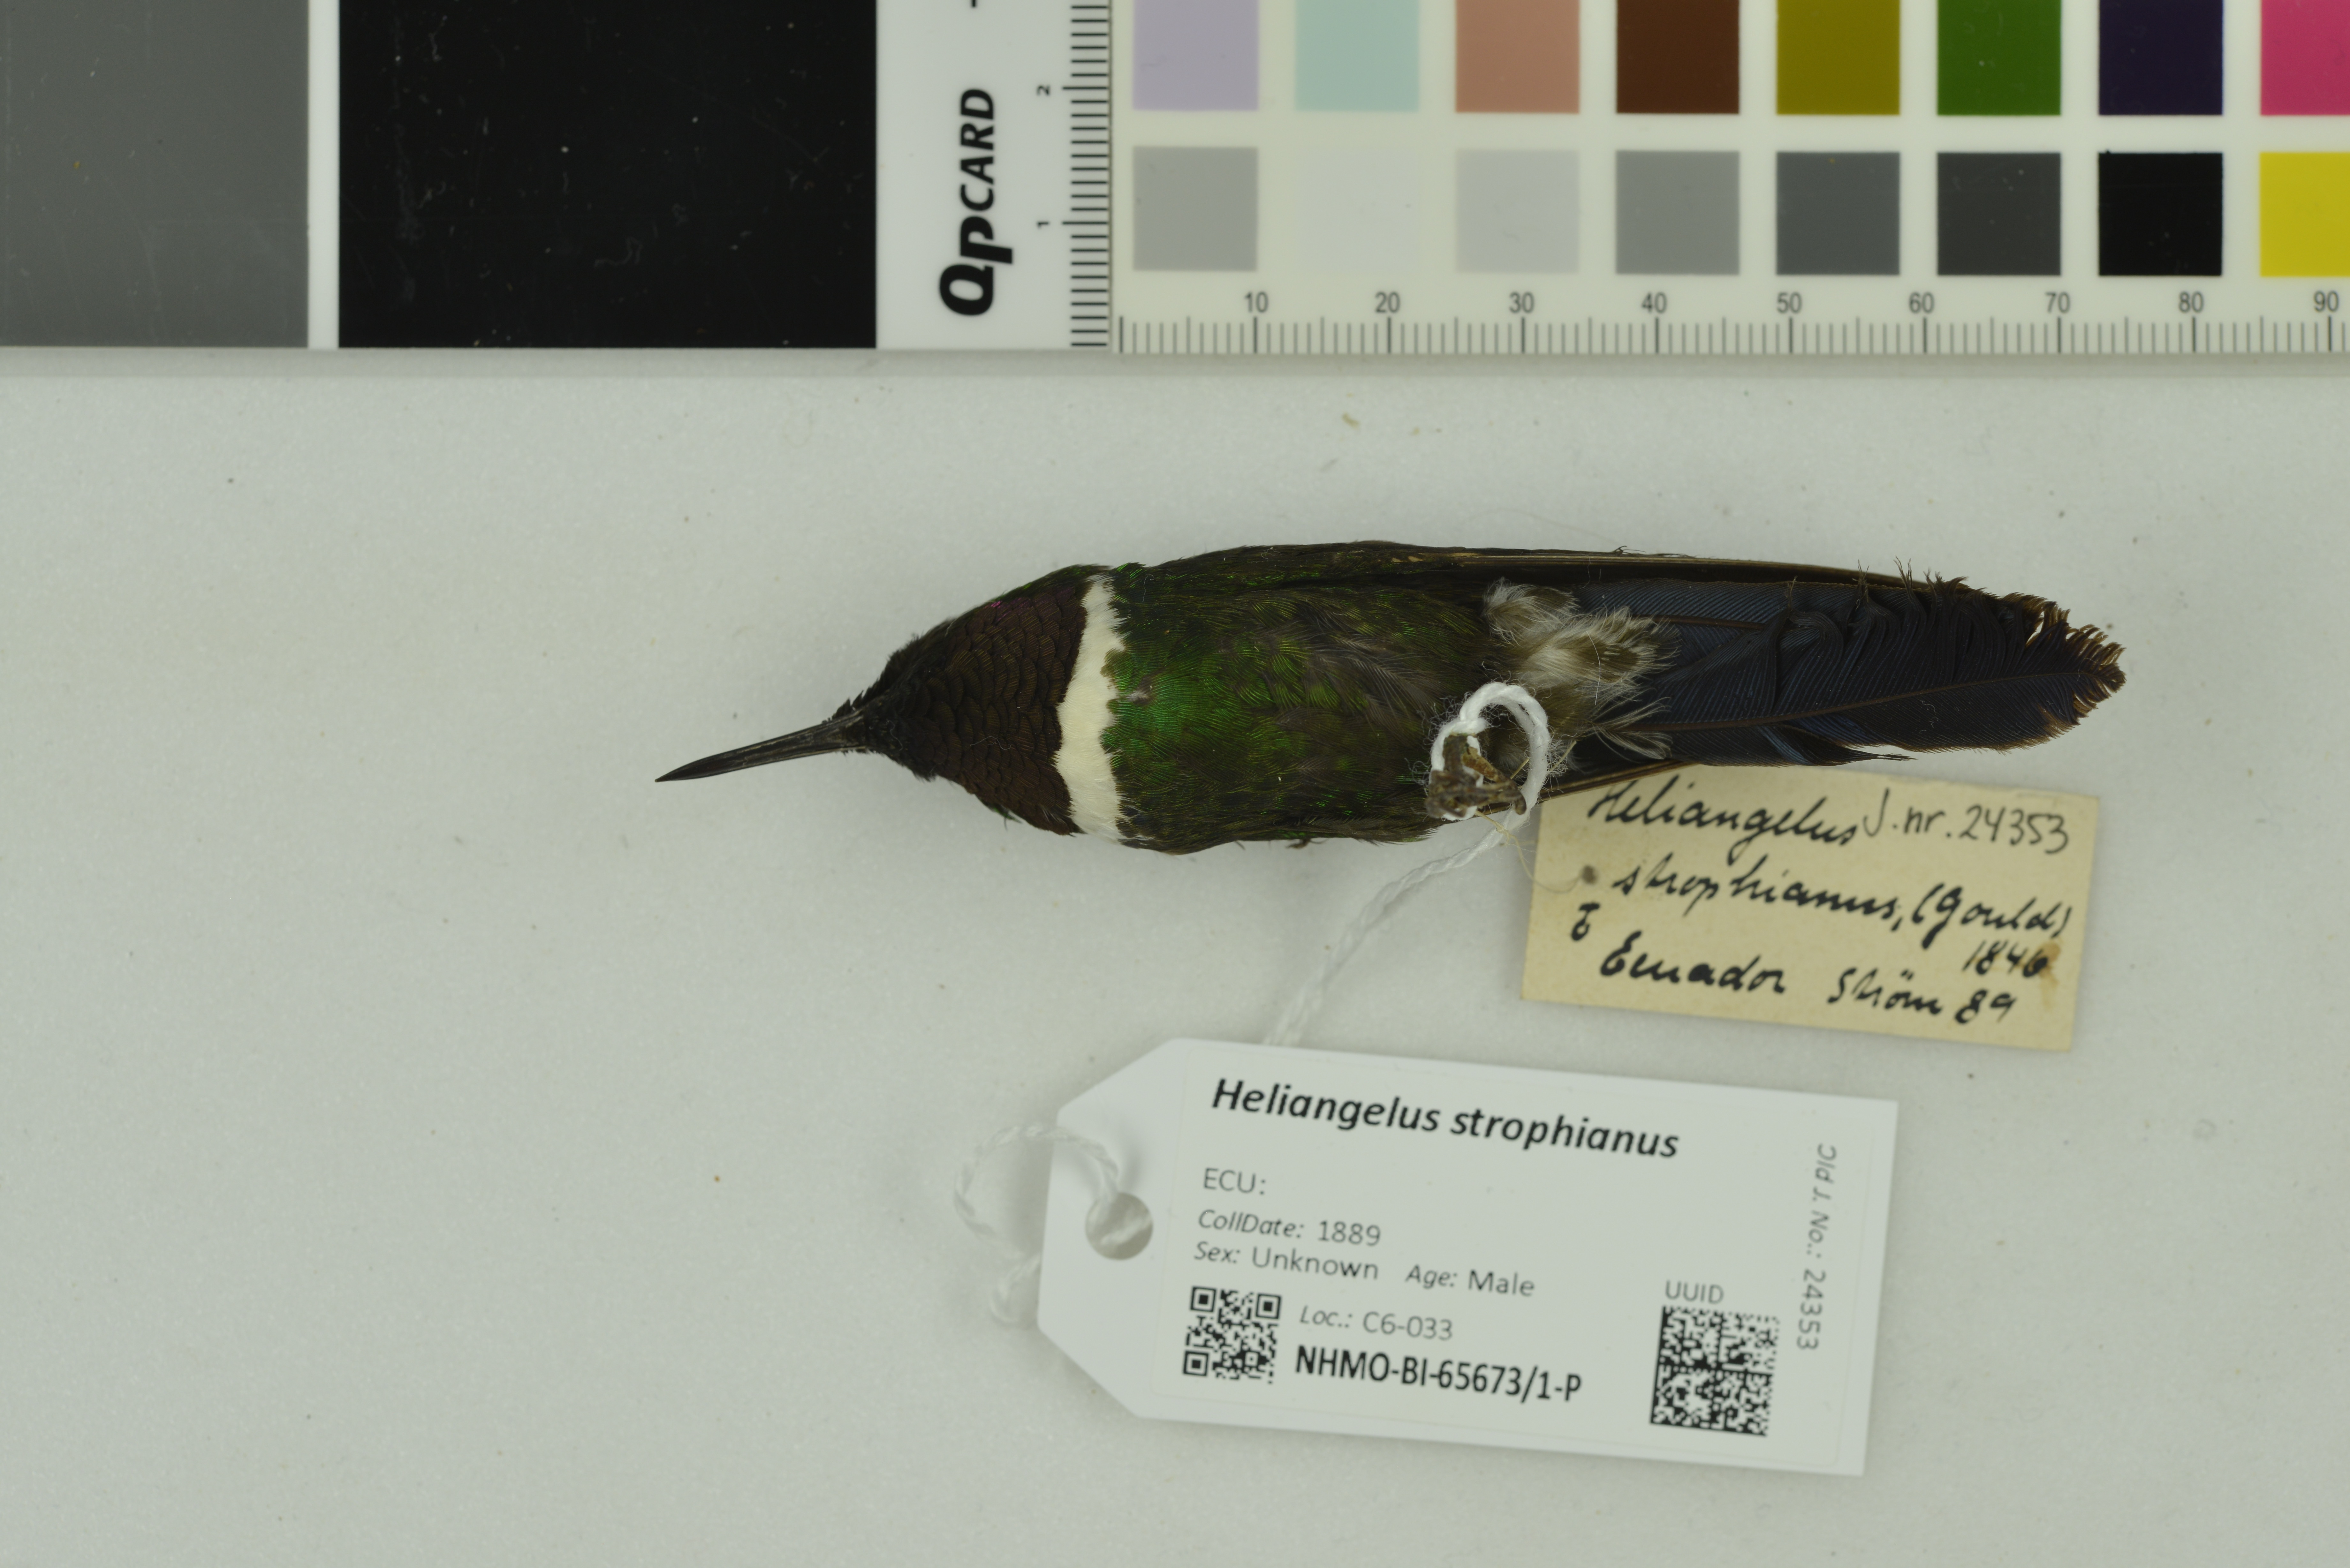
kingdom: Animalia
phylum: Chordata
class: Aves
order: Apodiformes
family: Trochilidae
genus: Heliangelus
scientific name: Heliangelus strophianus
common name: Gorgeted sunangel
